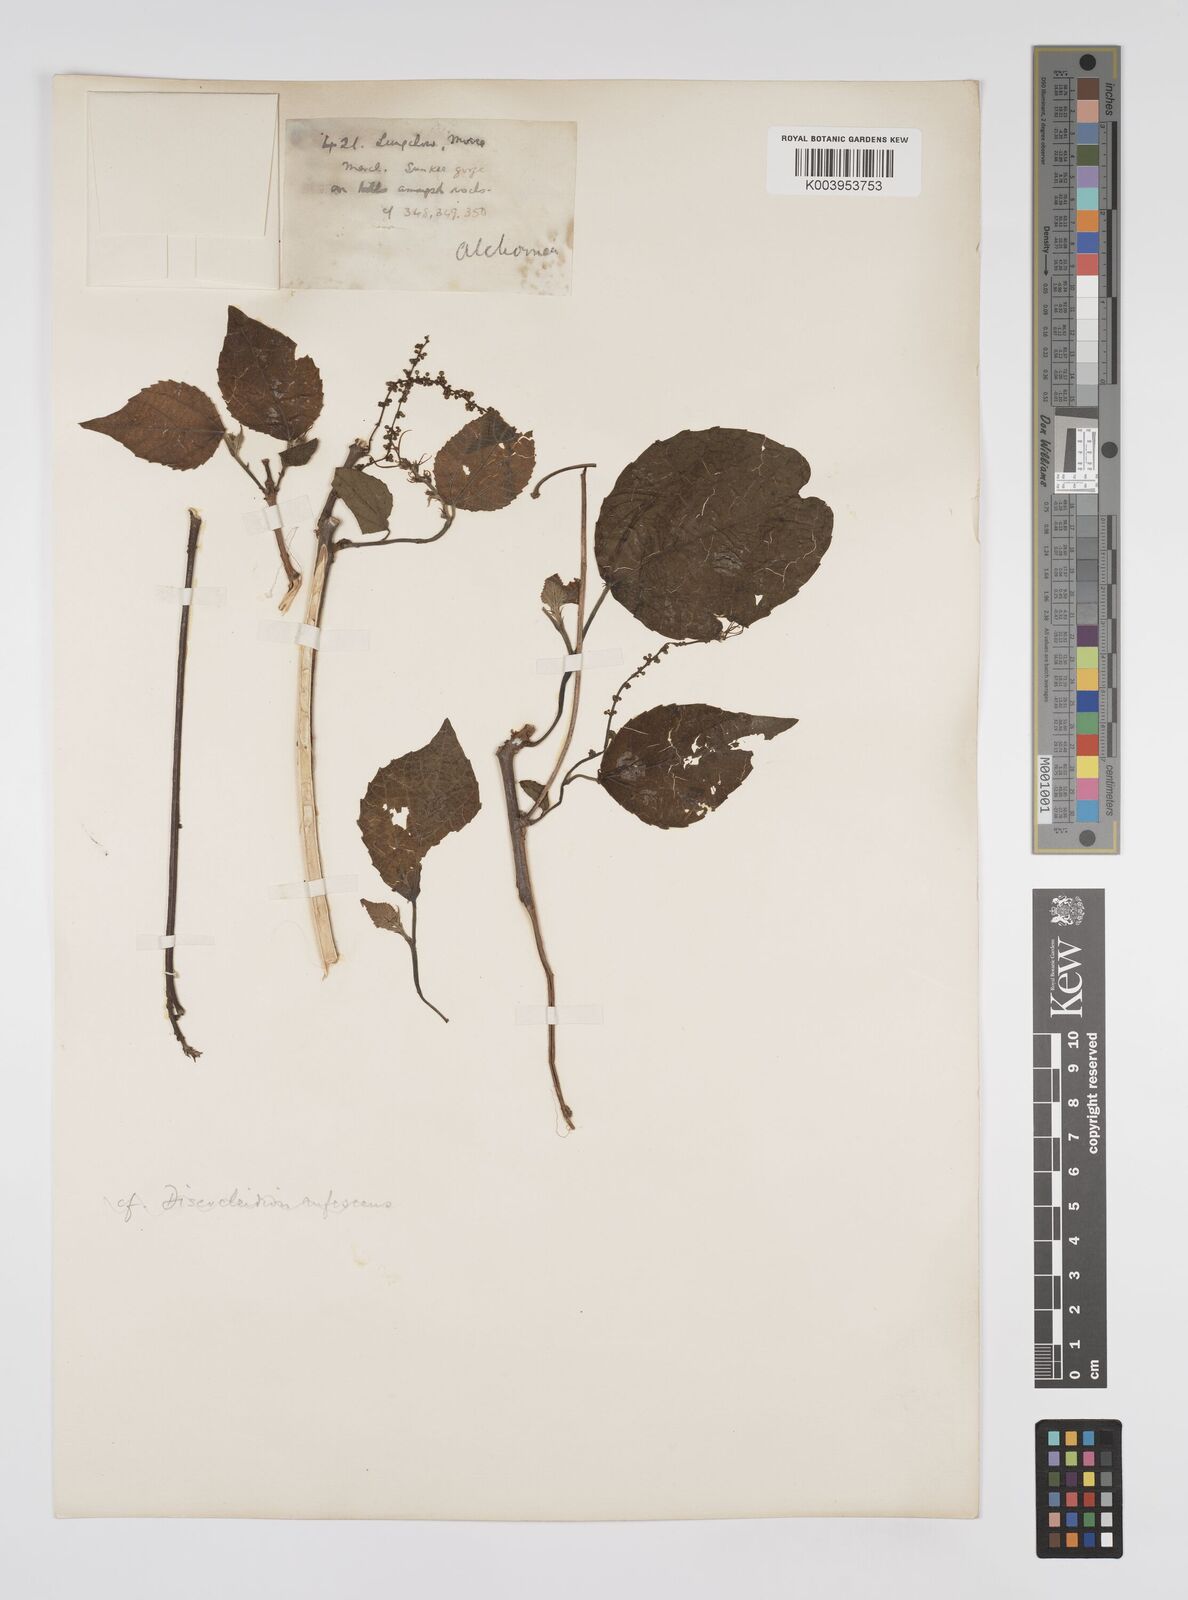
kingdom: Plantae
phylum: Tracheophyta
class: Magnoliopsida
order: Malpighiales
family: Euphorbiaceae
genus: Alchornea
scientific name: Alchornea mollis
